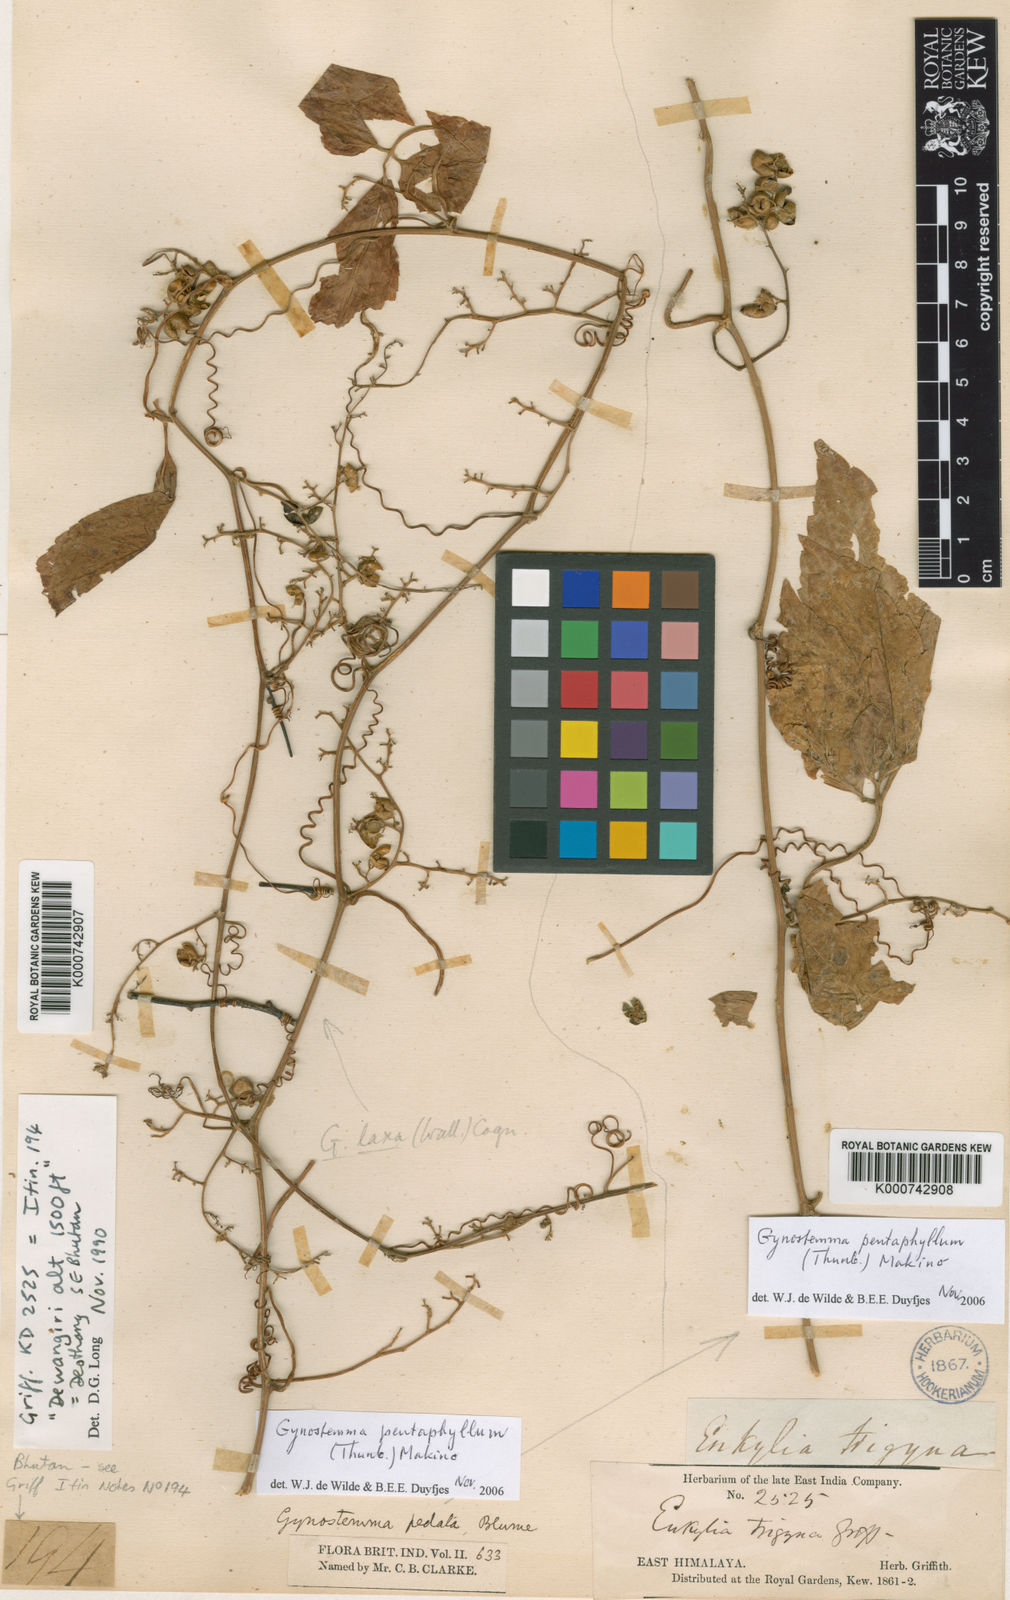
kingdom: Plantae
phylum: Tracheophyta
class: Magnoliopsida
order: Cucurbitales
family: Cucurbitaceae
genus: Gynostemma
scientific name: Gynostemma pentaphyllum
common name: Gynostemma
